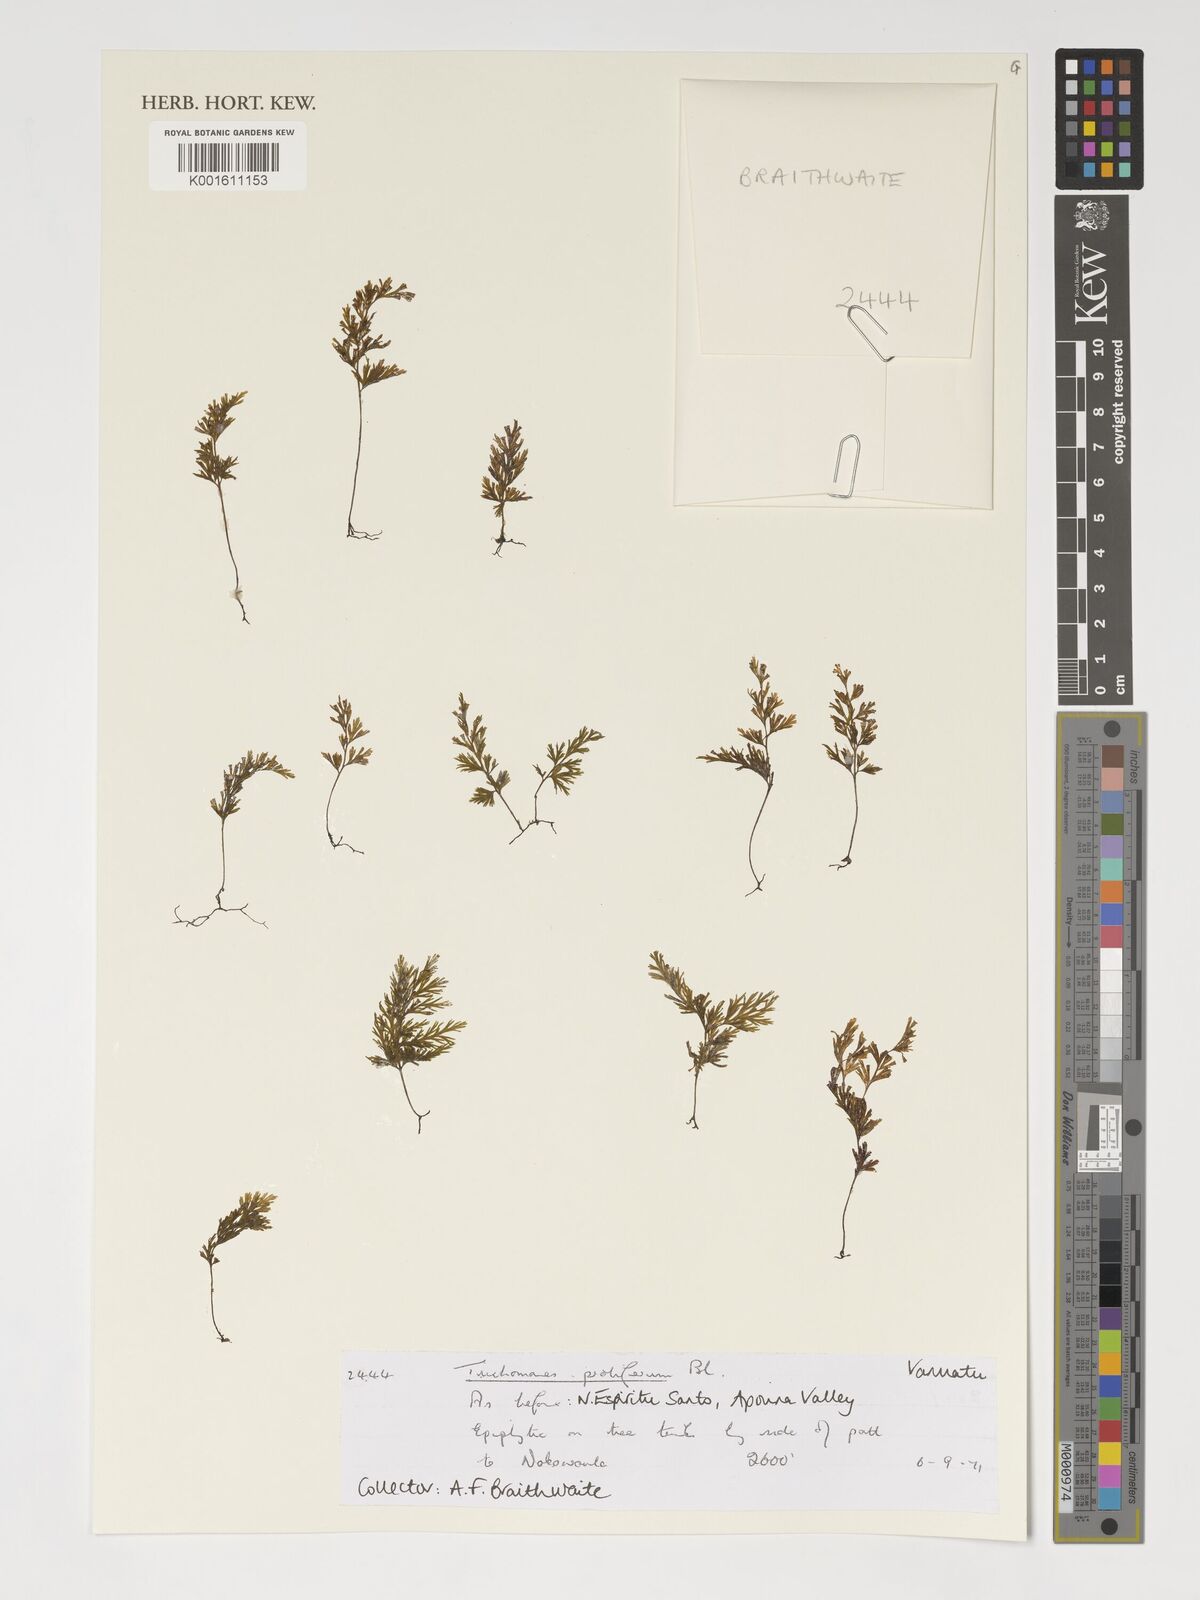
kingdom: Plantae
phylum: Tracheophyta
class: Polypodiopsida
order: Hymenophyllales
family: Hymenophyllaceae
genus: Crepidomanes
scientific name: Crepidomanes parvulum
